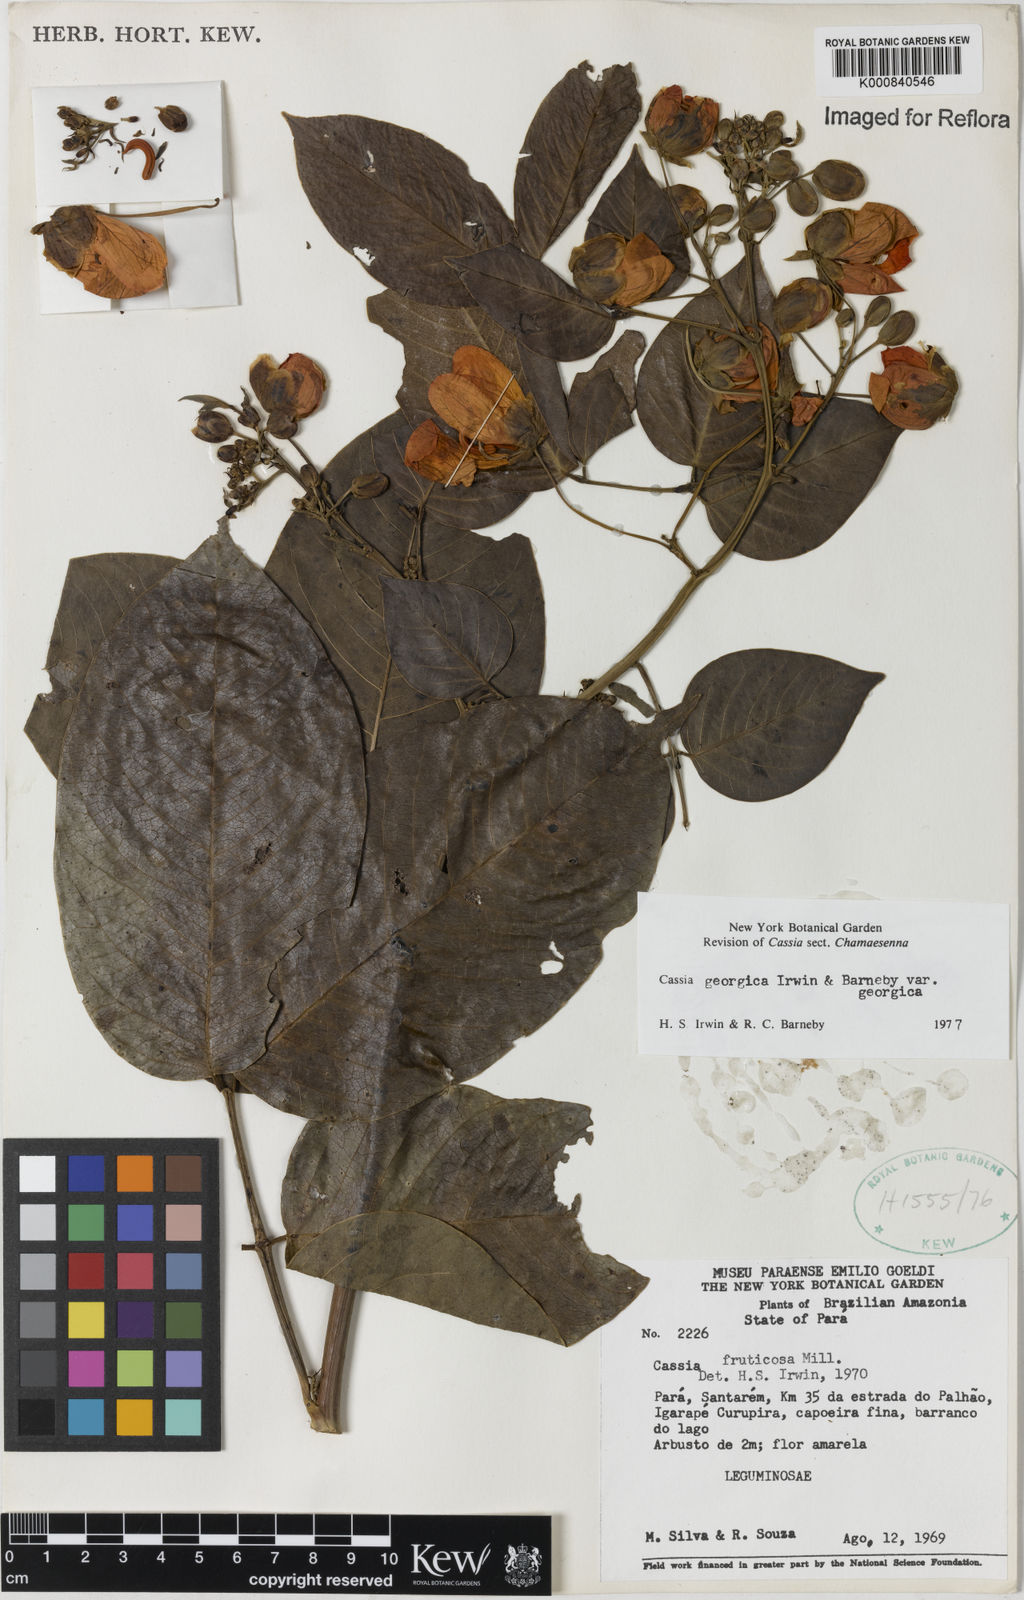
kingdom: Plantae
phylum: Tracheophyta
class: Magnoliopsida
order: Fabales
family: Fabaceae
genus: Senna
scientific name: Senna georgica
